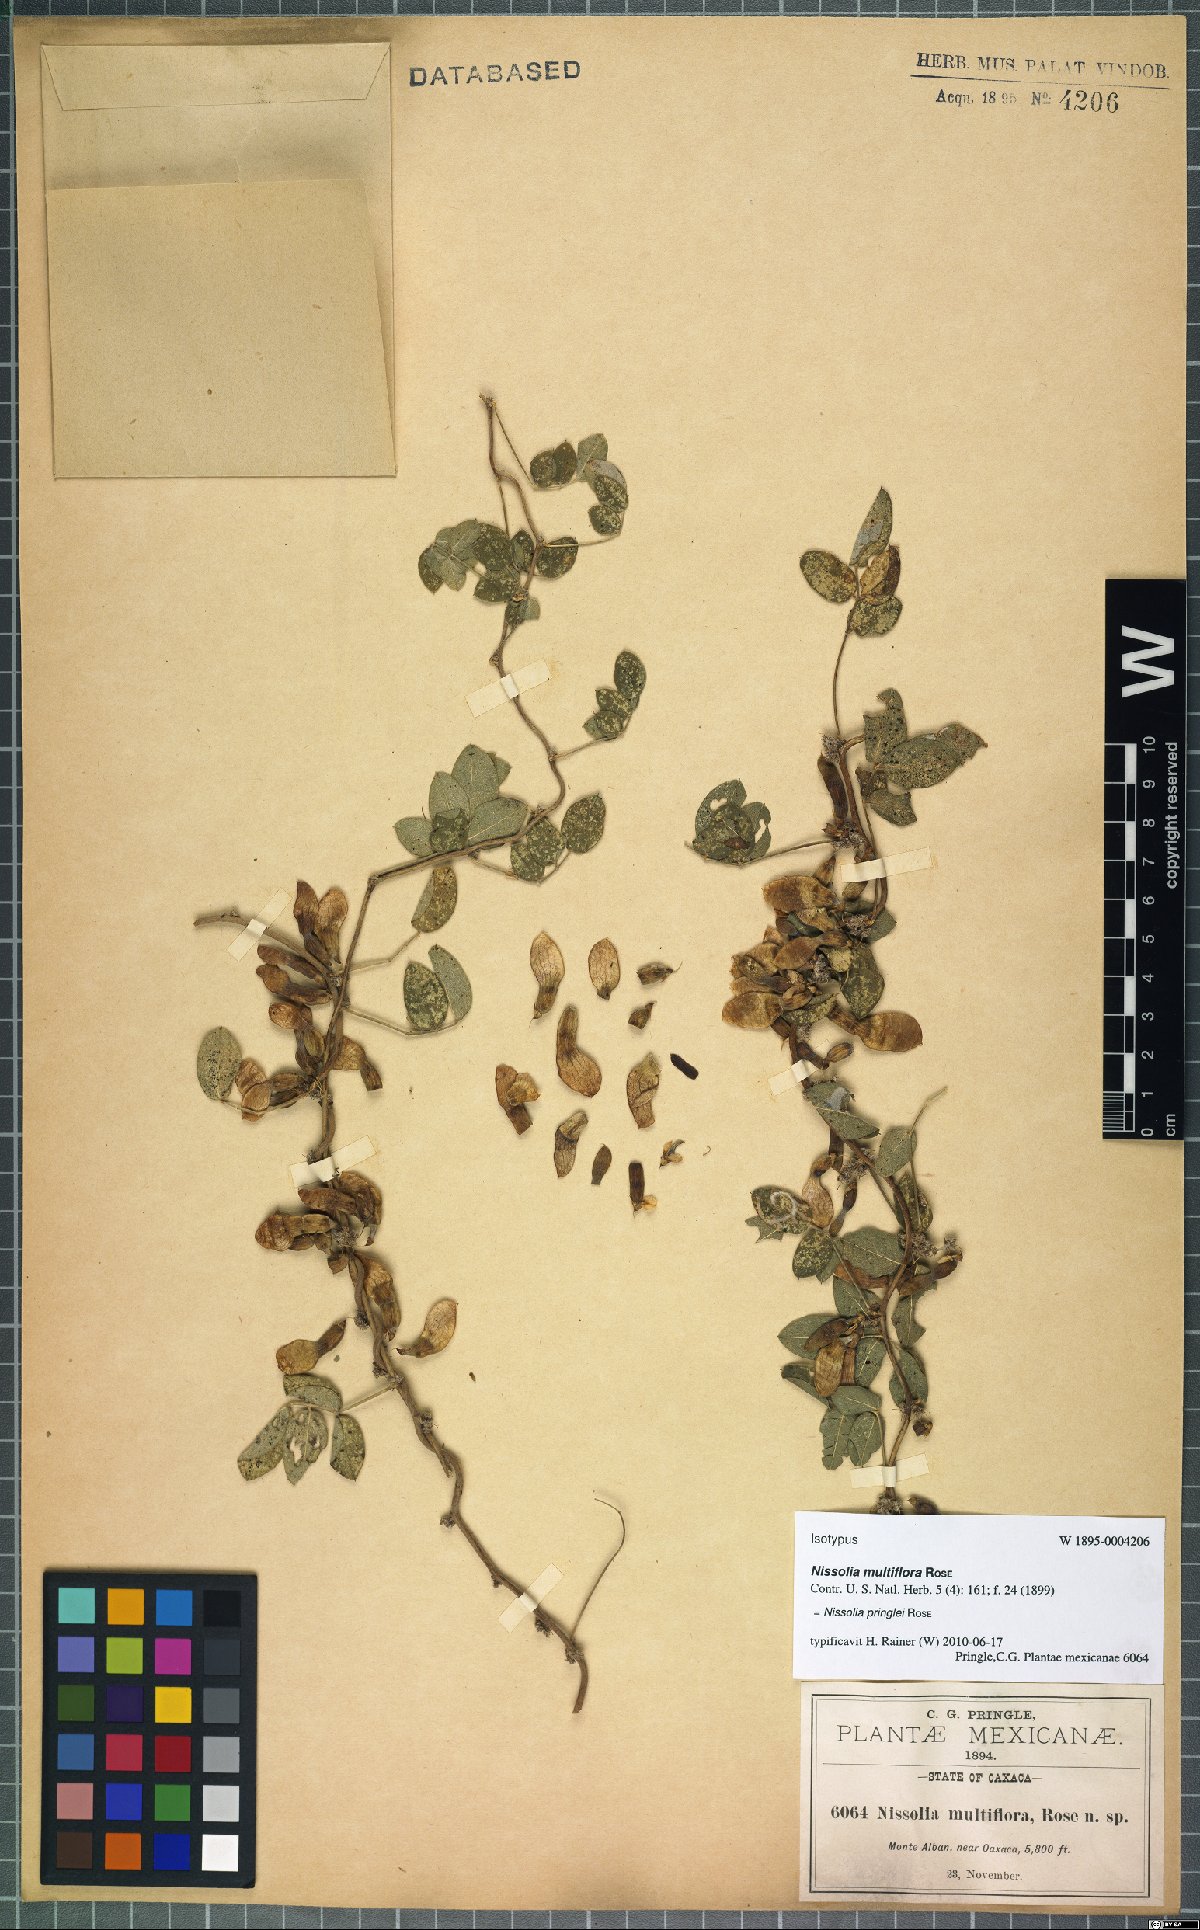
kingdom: Plantae
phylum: Tracheophyta
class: Magnoliopsida
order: Fabales
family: Fabaceae
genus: Nissolia
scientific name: Nissolia pringlei
